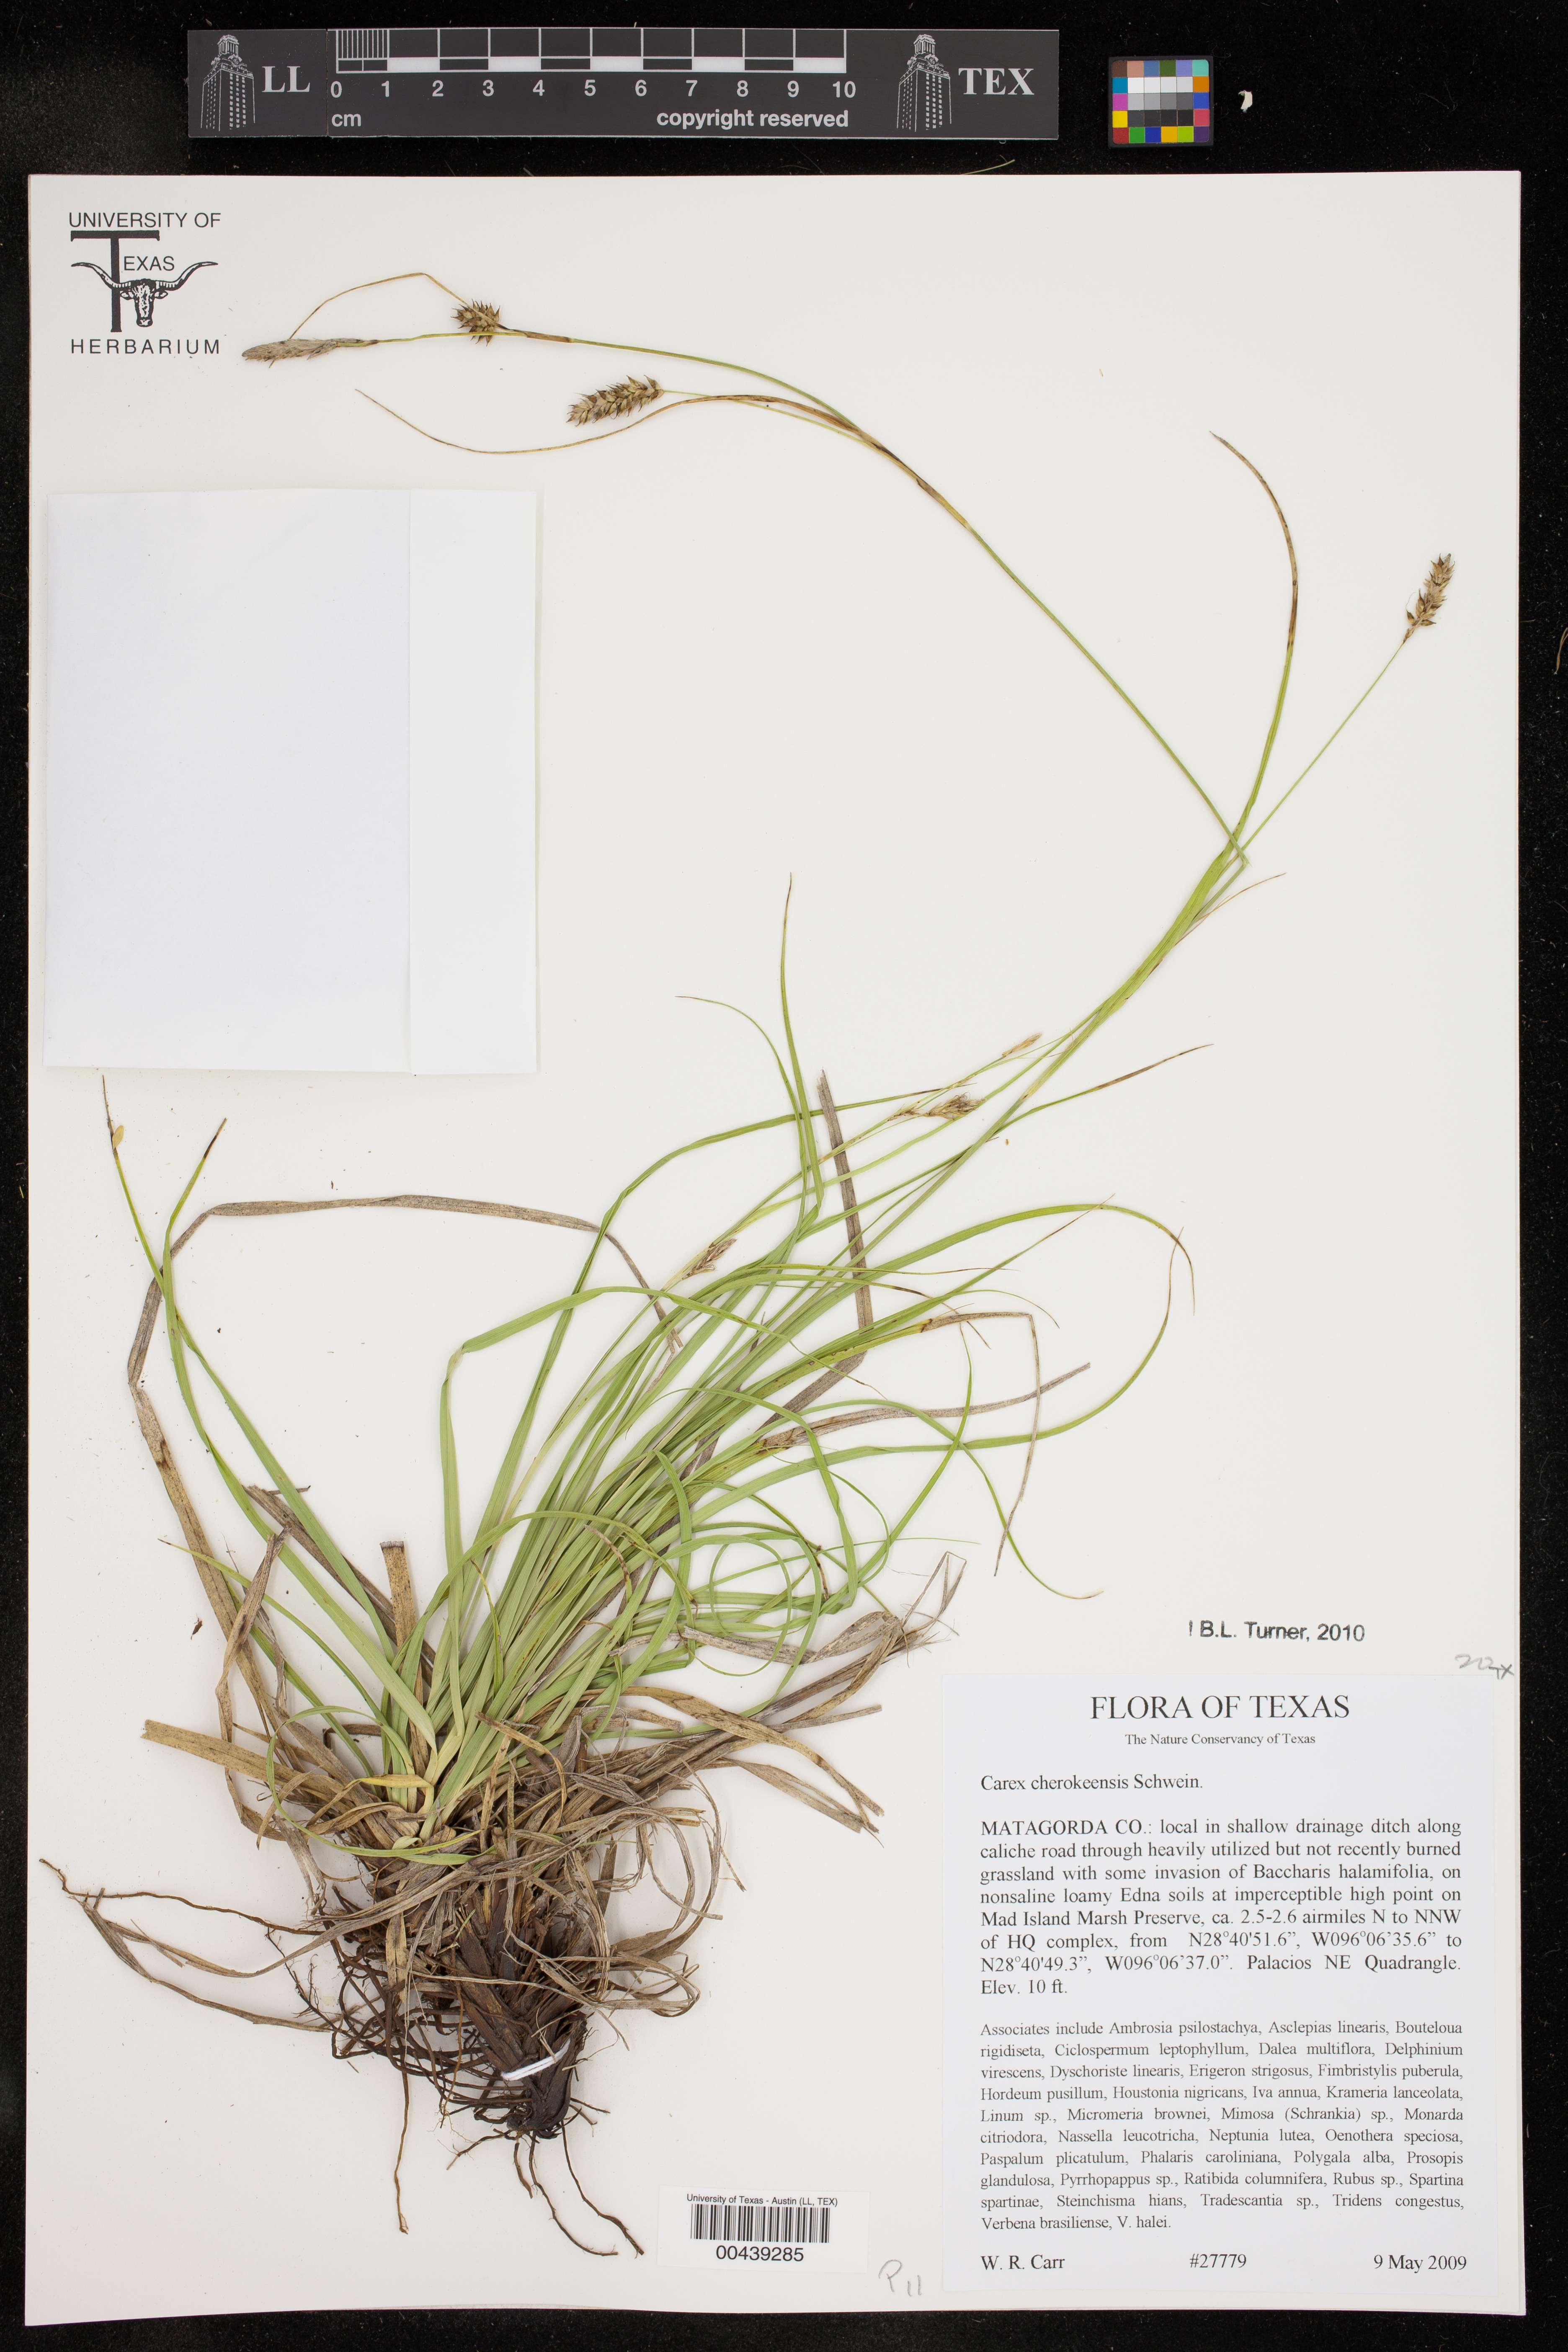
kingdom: Plantae
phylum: Tracheophyta
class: Liliopsida
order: Poales
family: Cyperaceae
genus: Carex
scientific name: Carex cherokeensis
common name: Cherokee sedge
